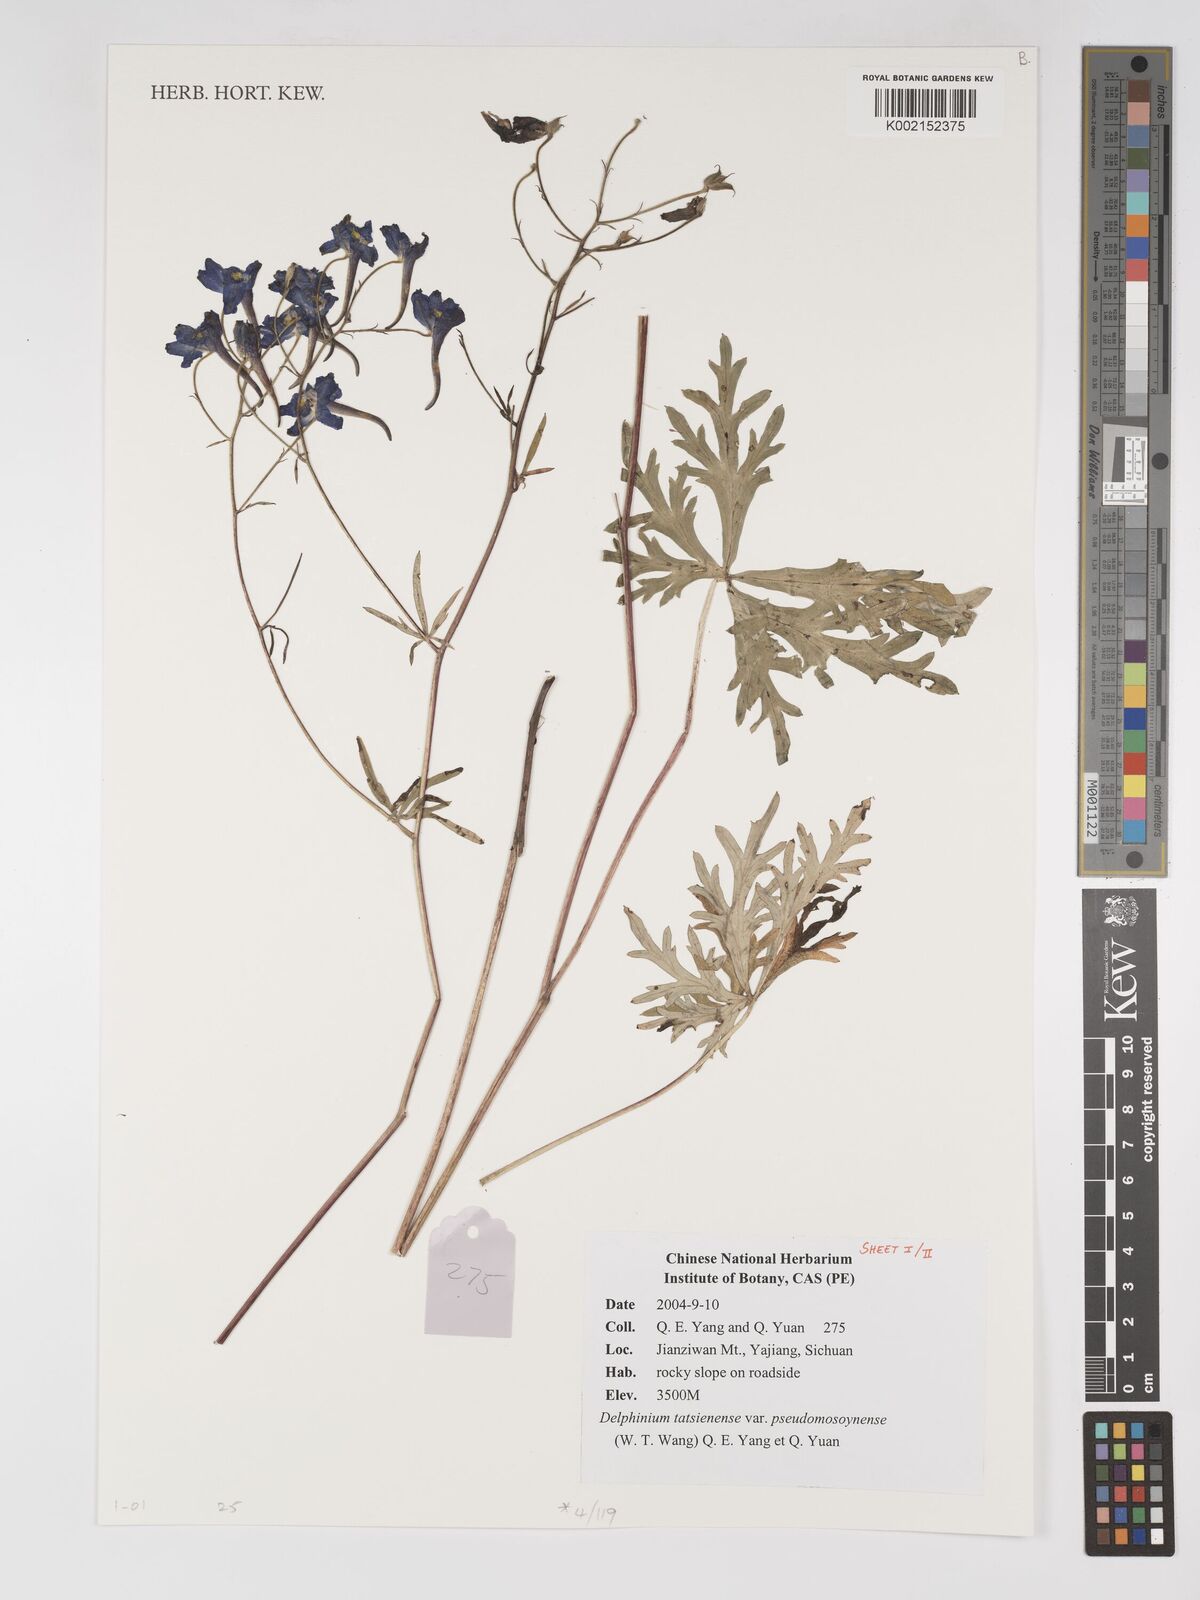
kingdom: Plantae
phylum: Tracheophyta
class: Magnoliopsida
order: Ranunculales
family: Ranunculaceae
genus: Delphinium
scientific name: Delphinium tatsienense
